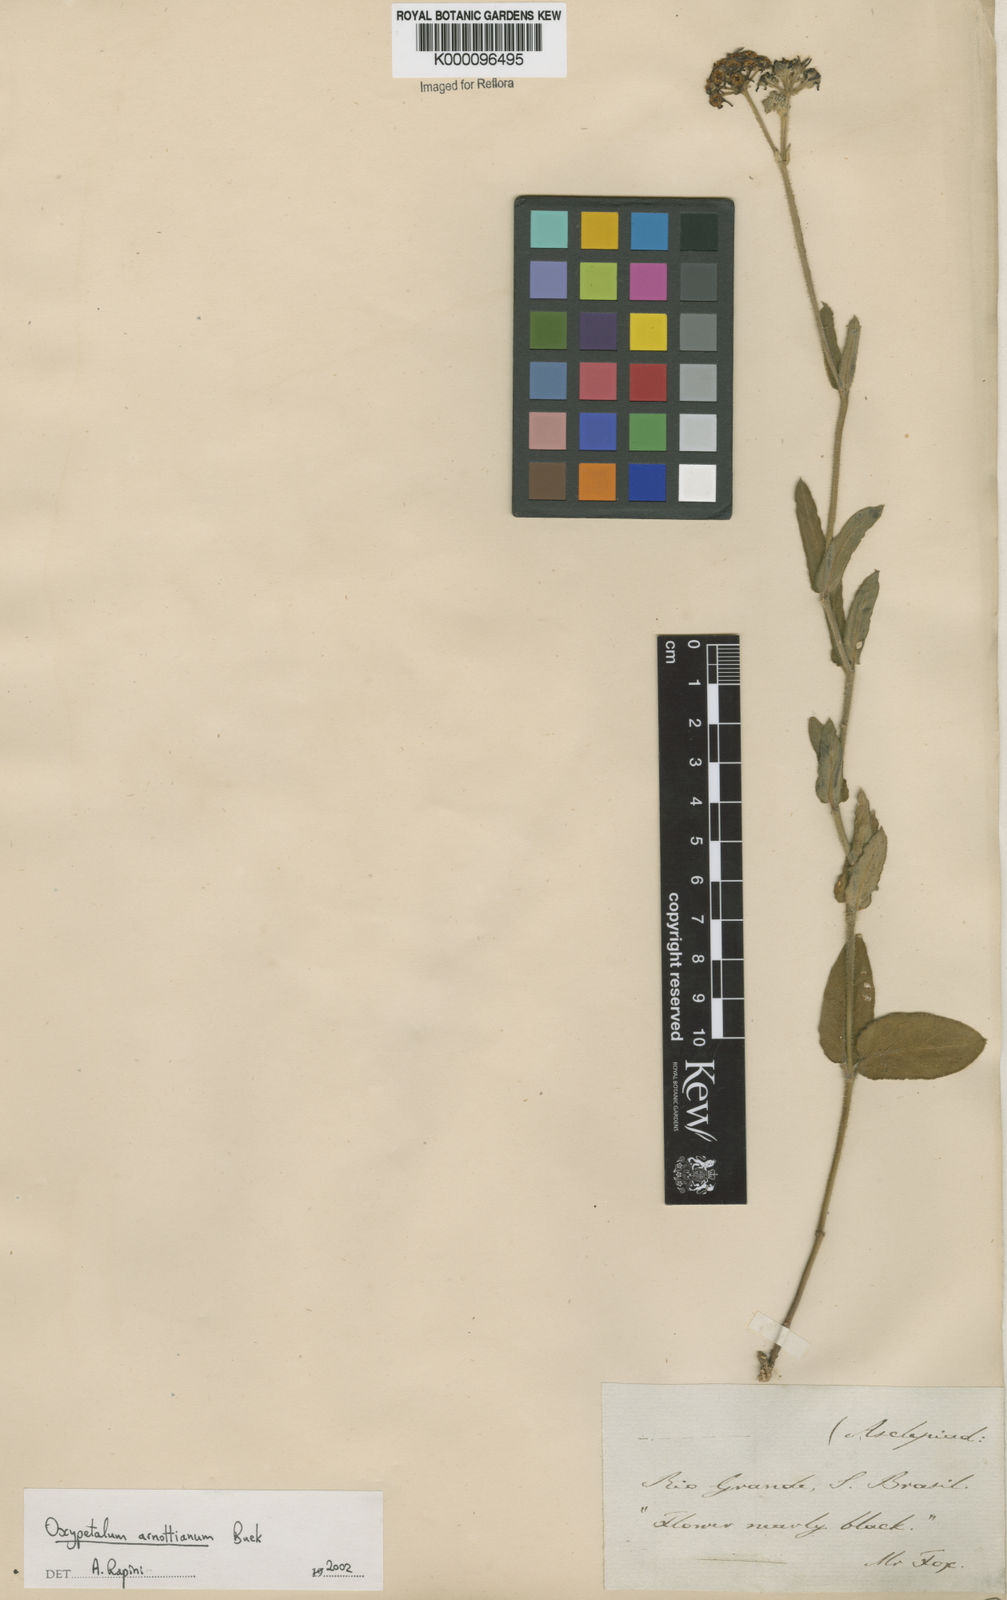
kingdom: Plantae
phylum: Tracheophyta
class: Magnoliopsida
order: Gentianales
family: Apocynaceae
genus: Oxypetalum
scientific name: Oxypetalum arnottianum
